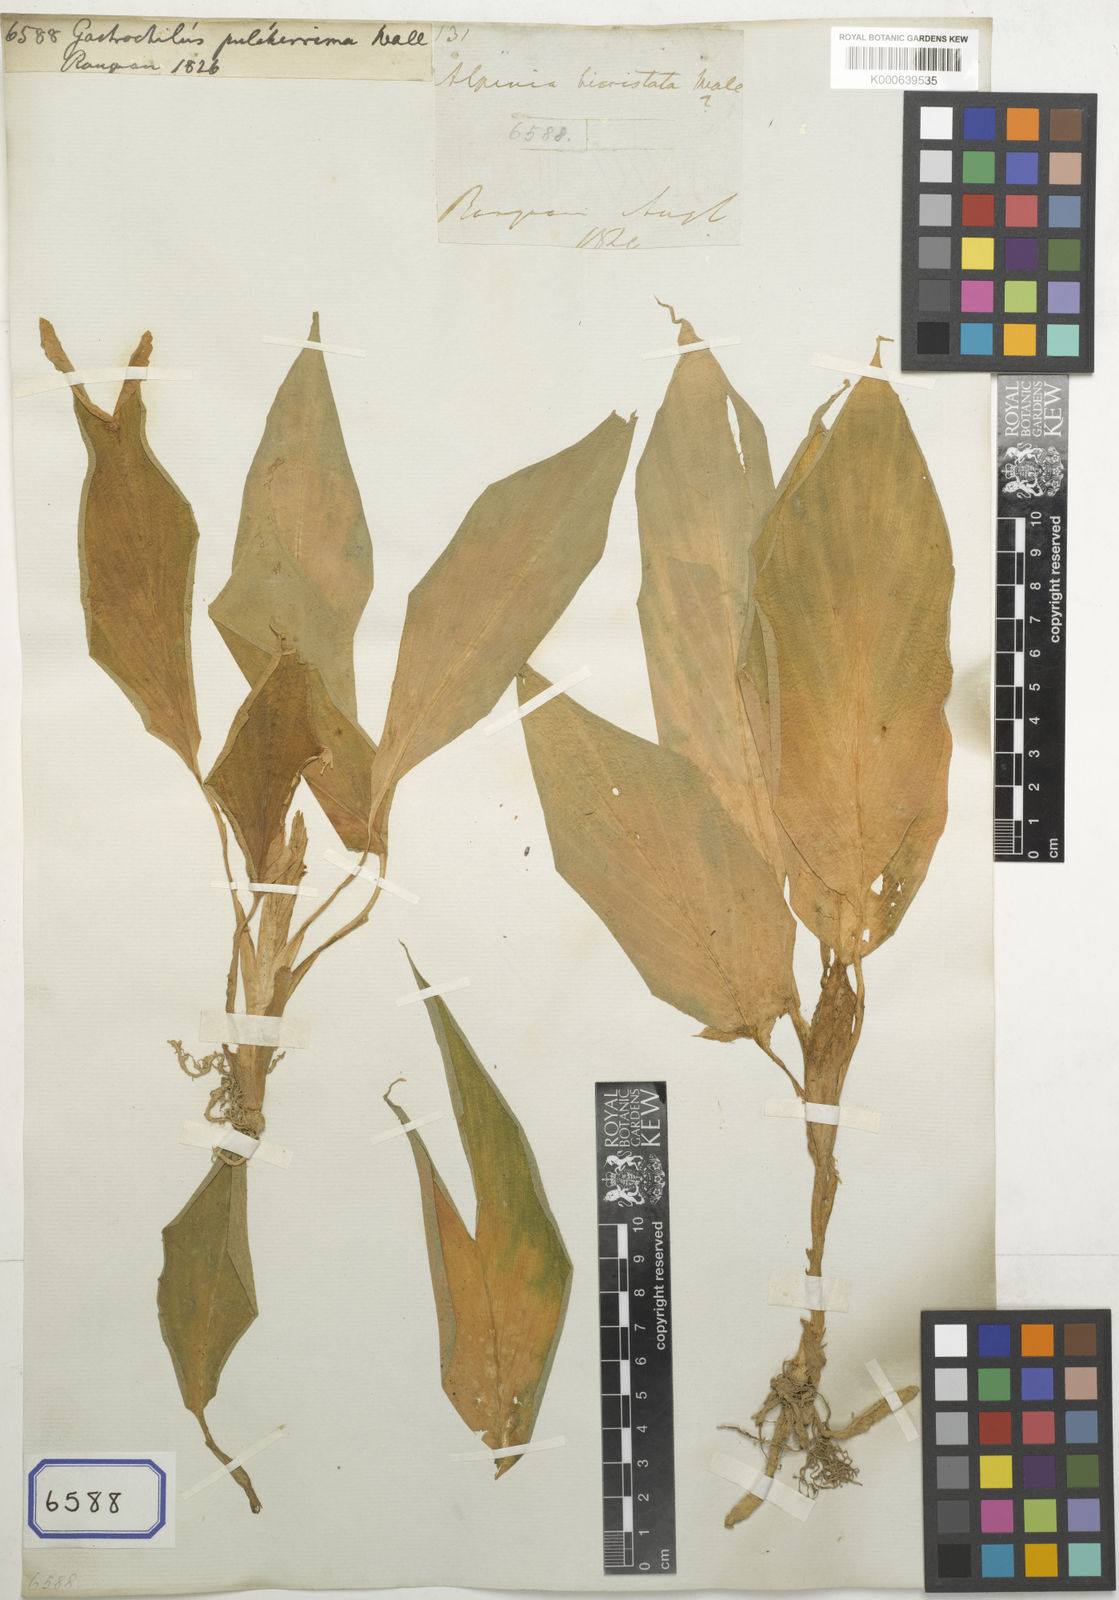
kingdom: Plantae
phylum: Tracheophyta
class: Liliopsida
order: Zingiberales
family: Zingiberaceae
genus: Boesenbergia
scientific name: Boesenbergia pulcherrima
